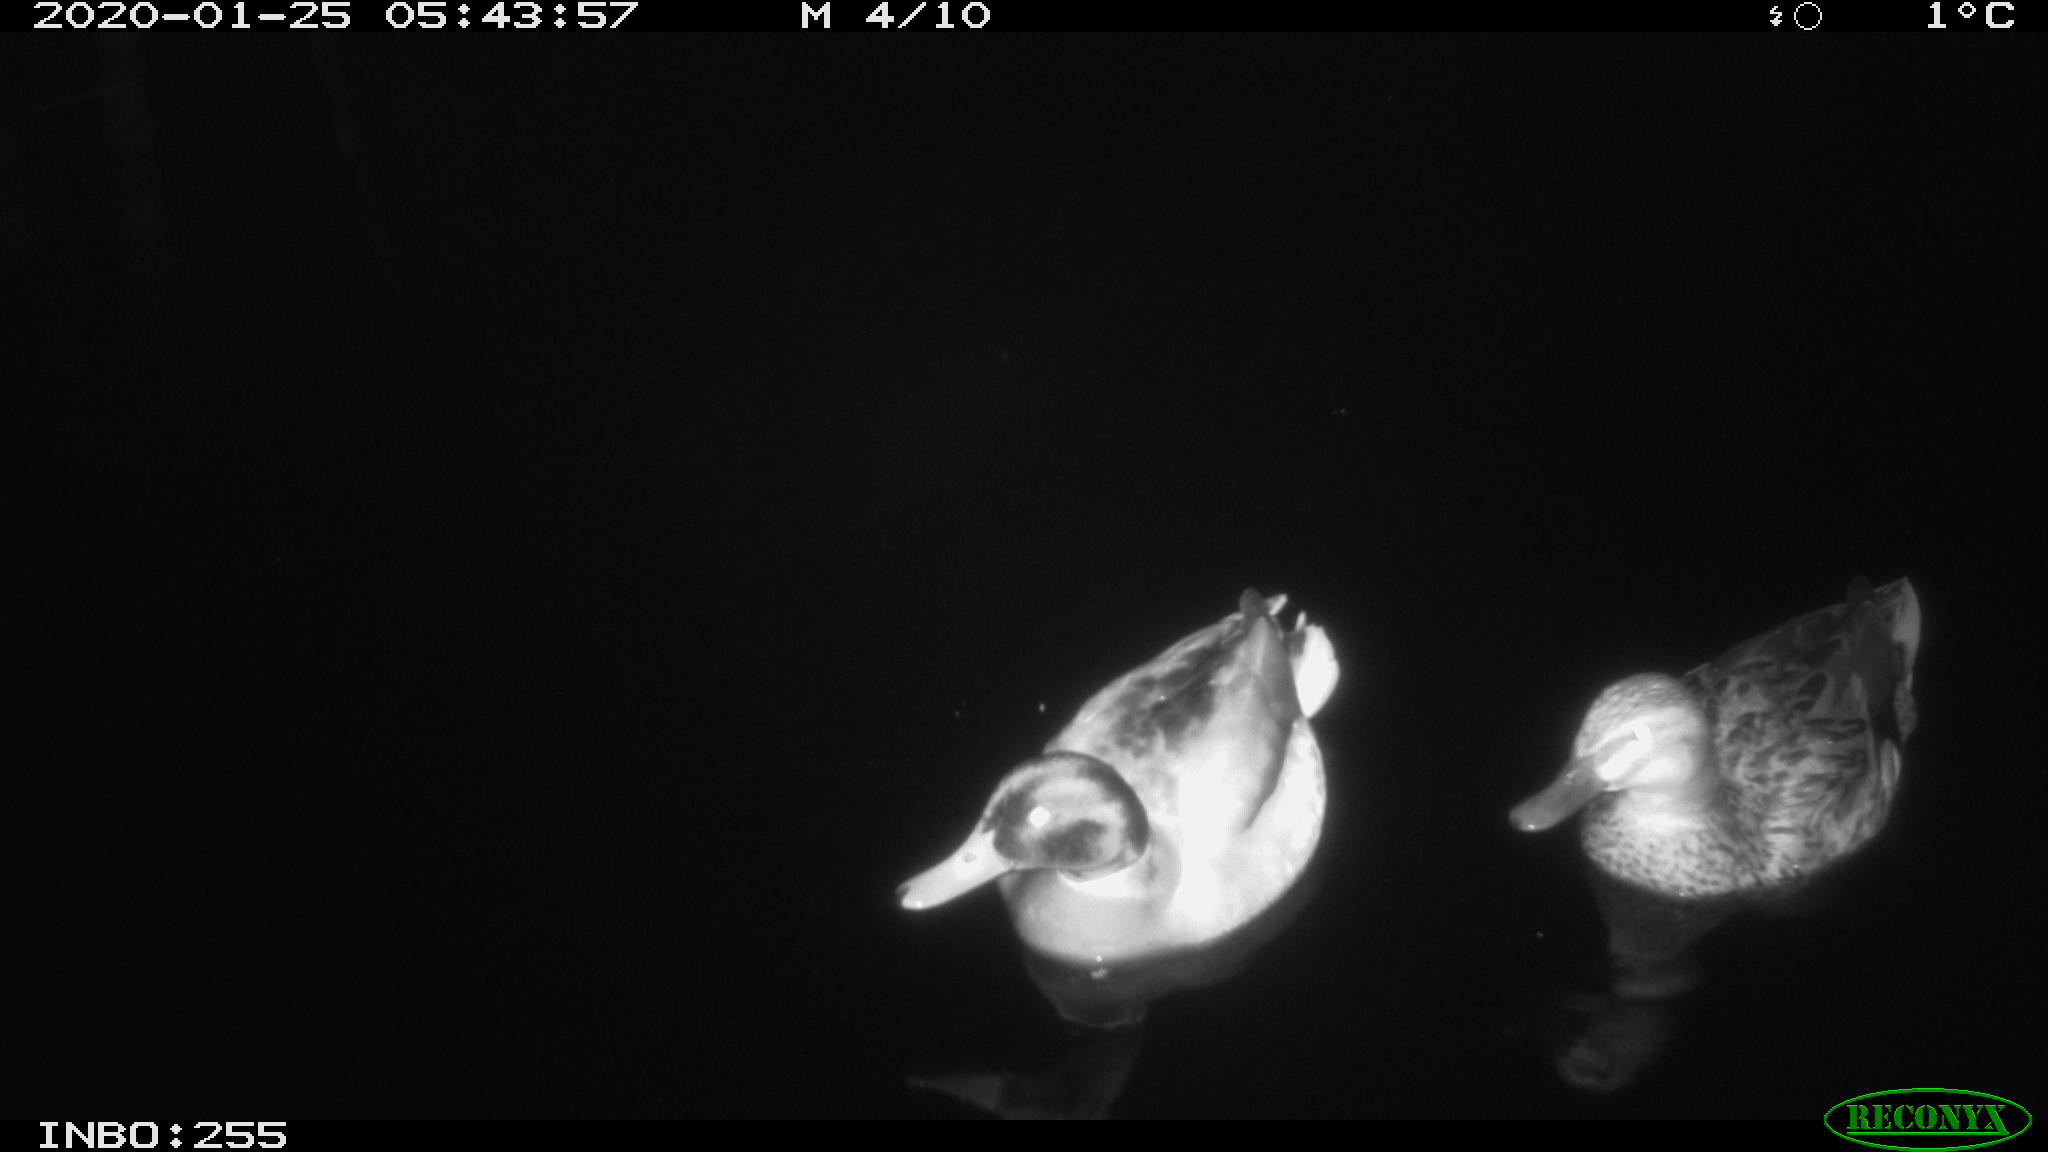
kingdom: Animalia
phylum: Chordata
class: Aves
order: Anseriformes
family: Anatidae
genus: Anas
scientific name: Anas platyrhynchos
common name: Mallard
